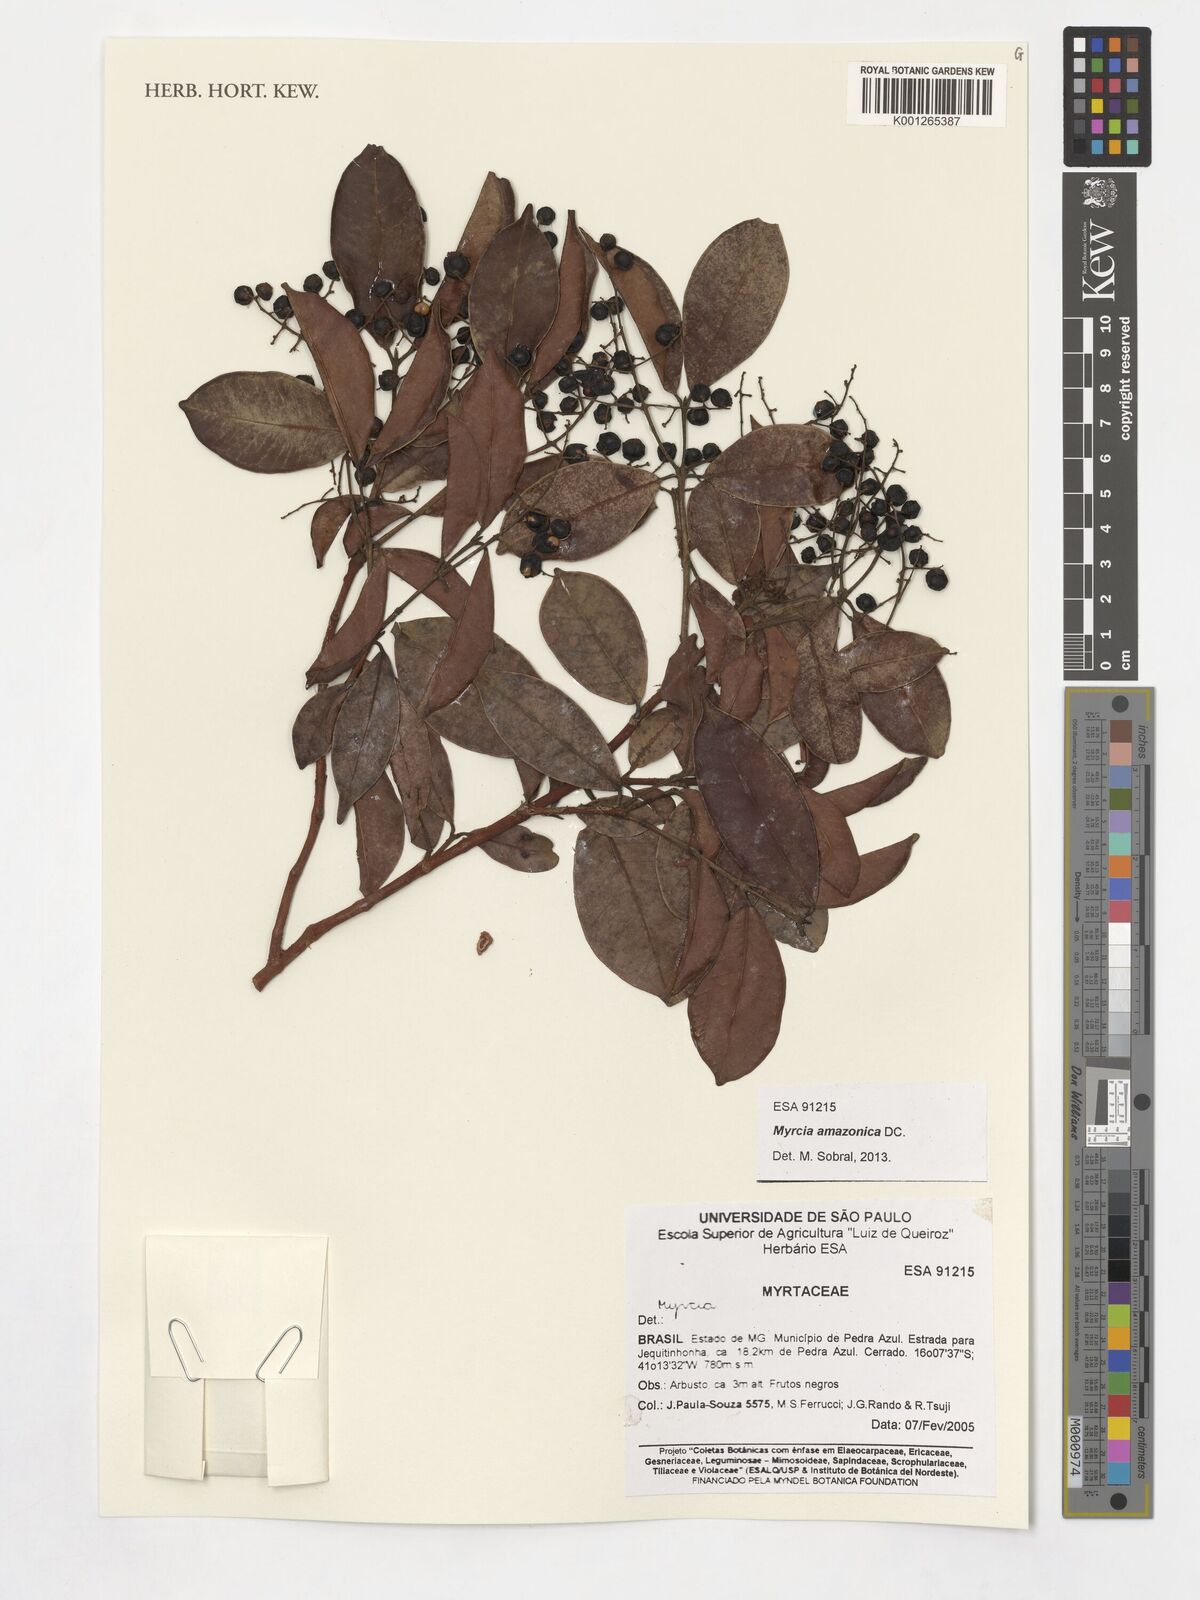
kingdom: Plantae
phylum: Tracheophyta
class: Magnoliopsida
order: Myrtales
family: Myrtaceae
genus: Myrcia
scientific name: Myrcia amazonica
